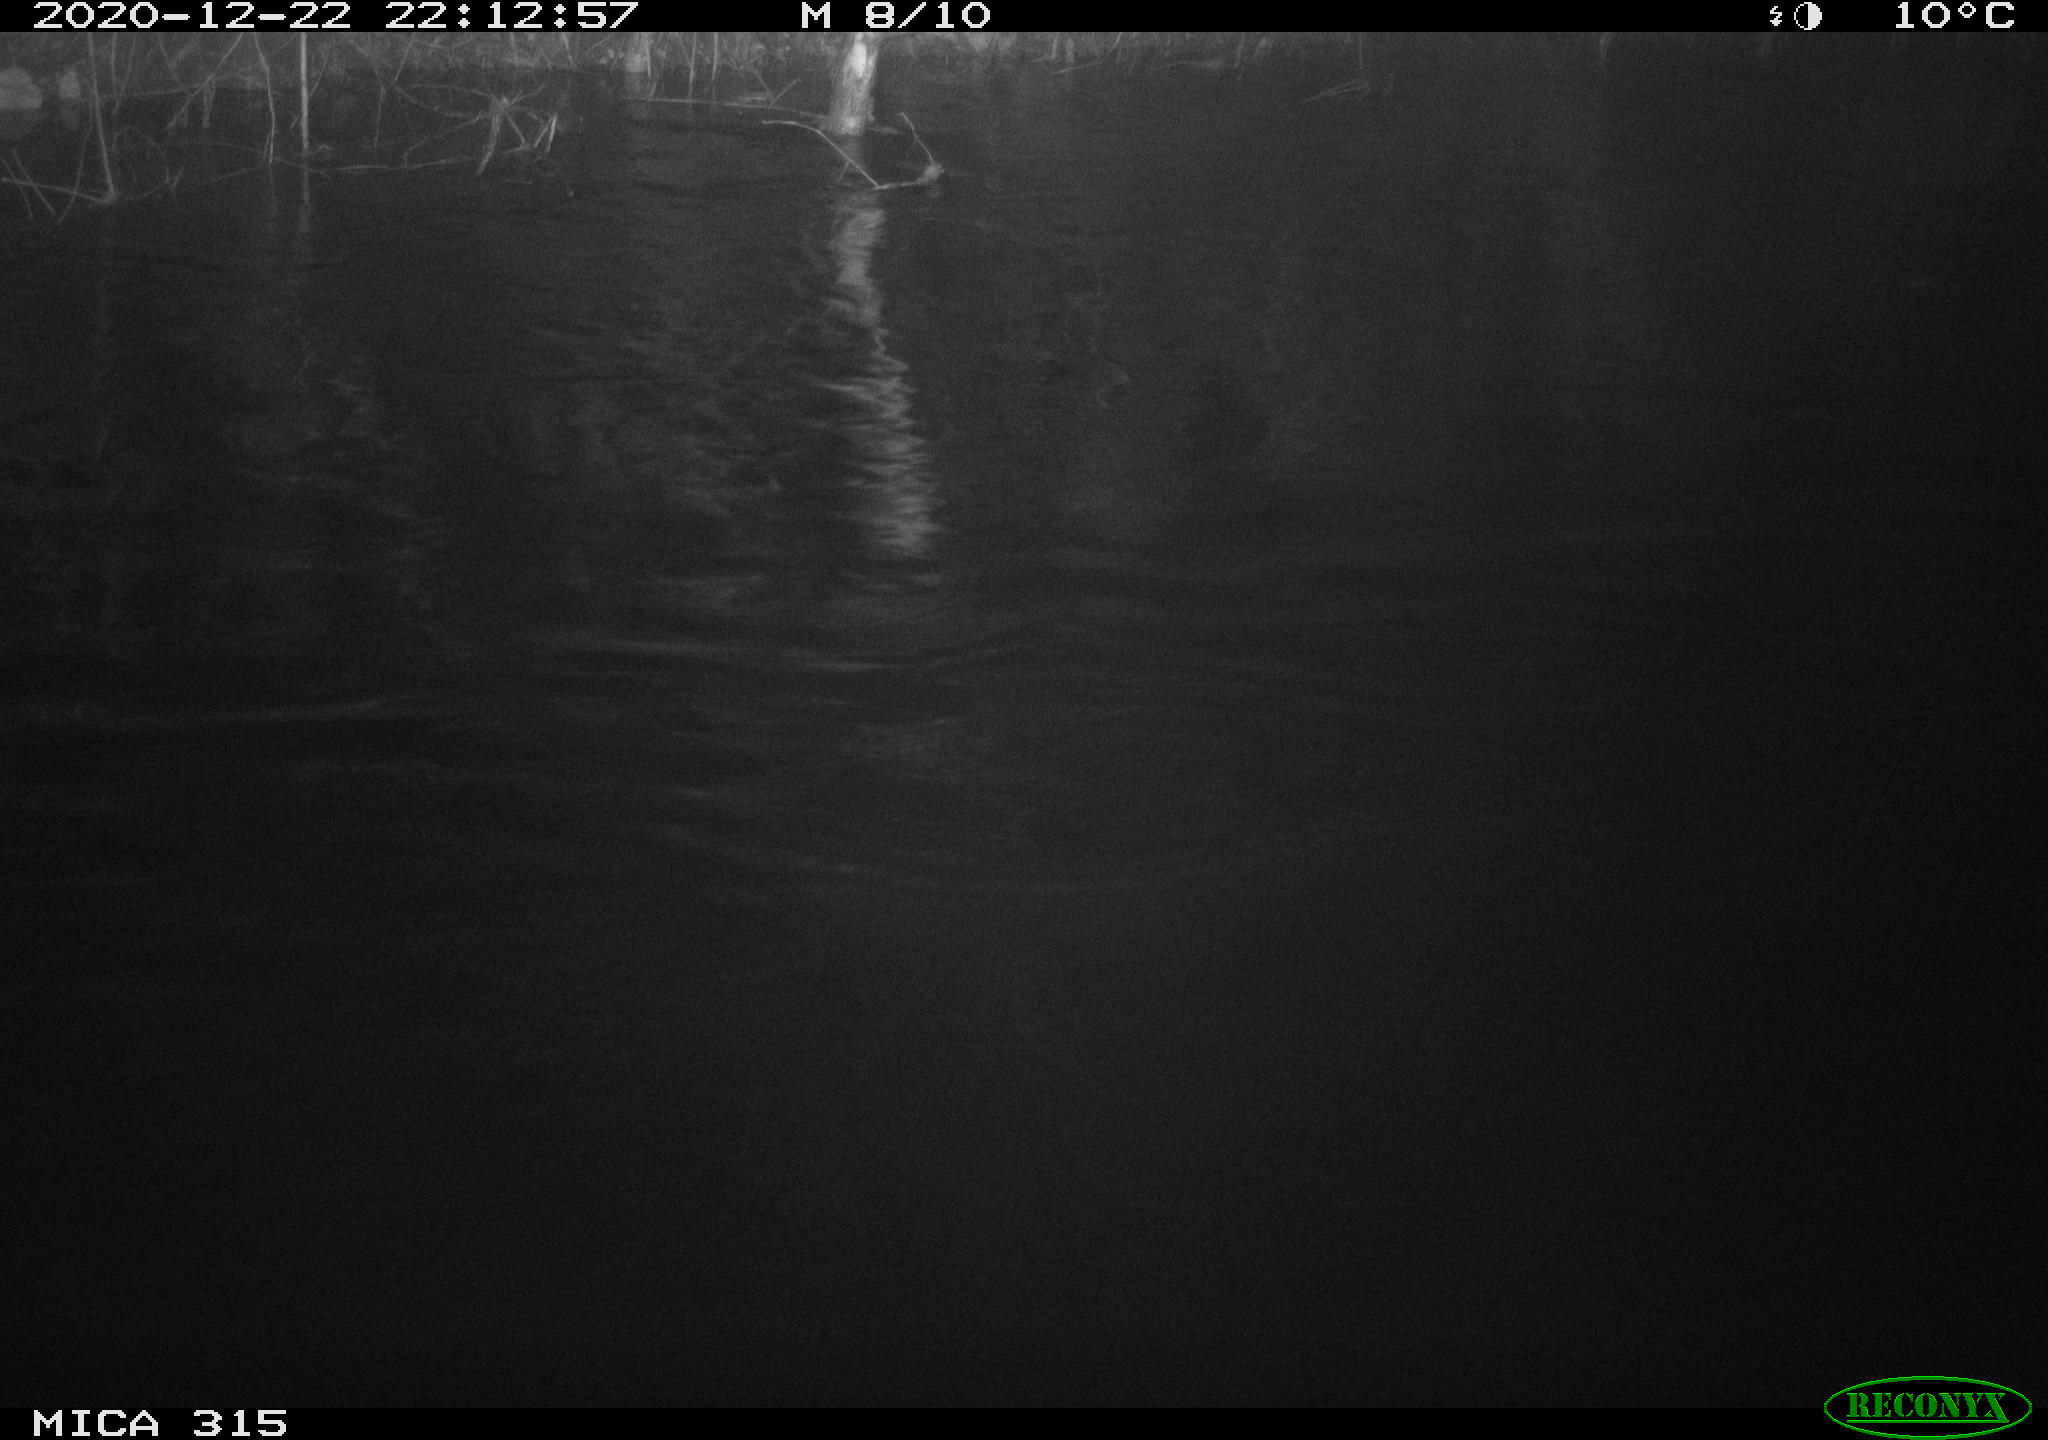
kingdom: Animalia
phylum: Chordata
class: Aves
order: Anseriformes
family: Anatidae
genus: Anas
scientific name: Anas platyrhynchos
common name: Mallard
